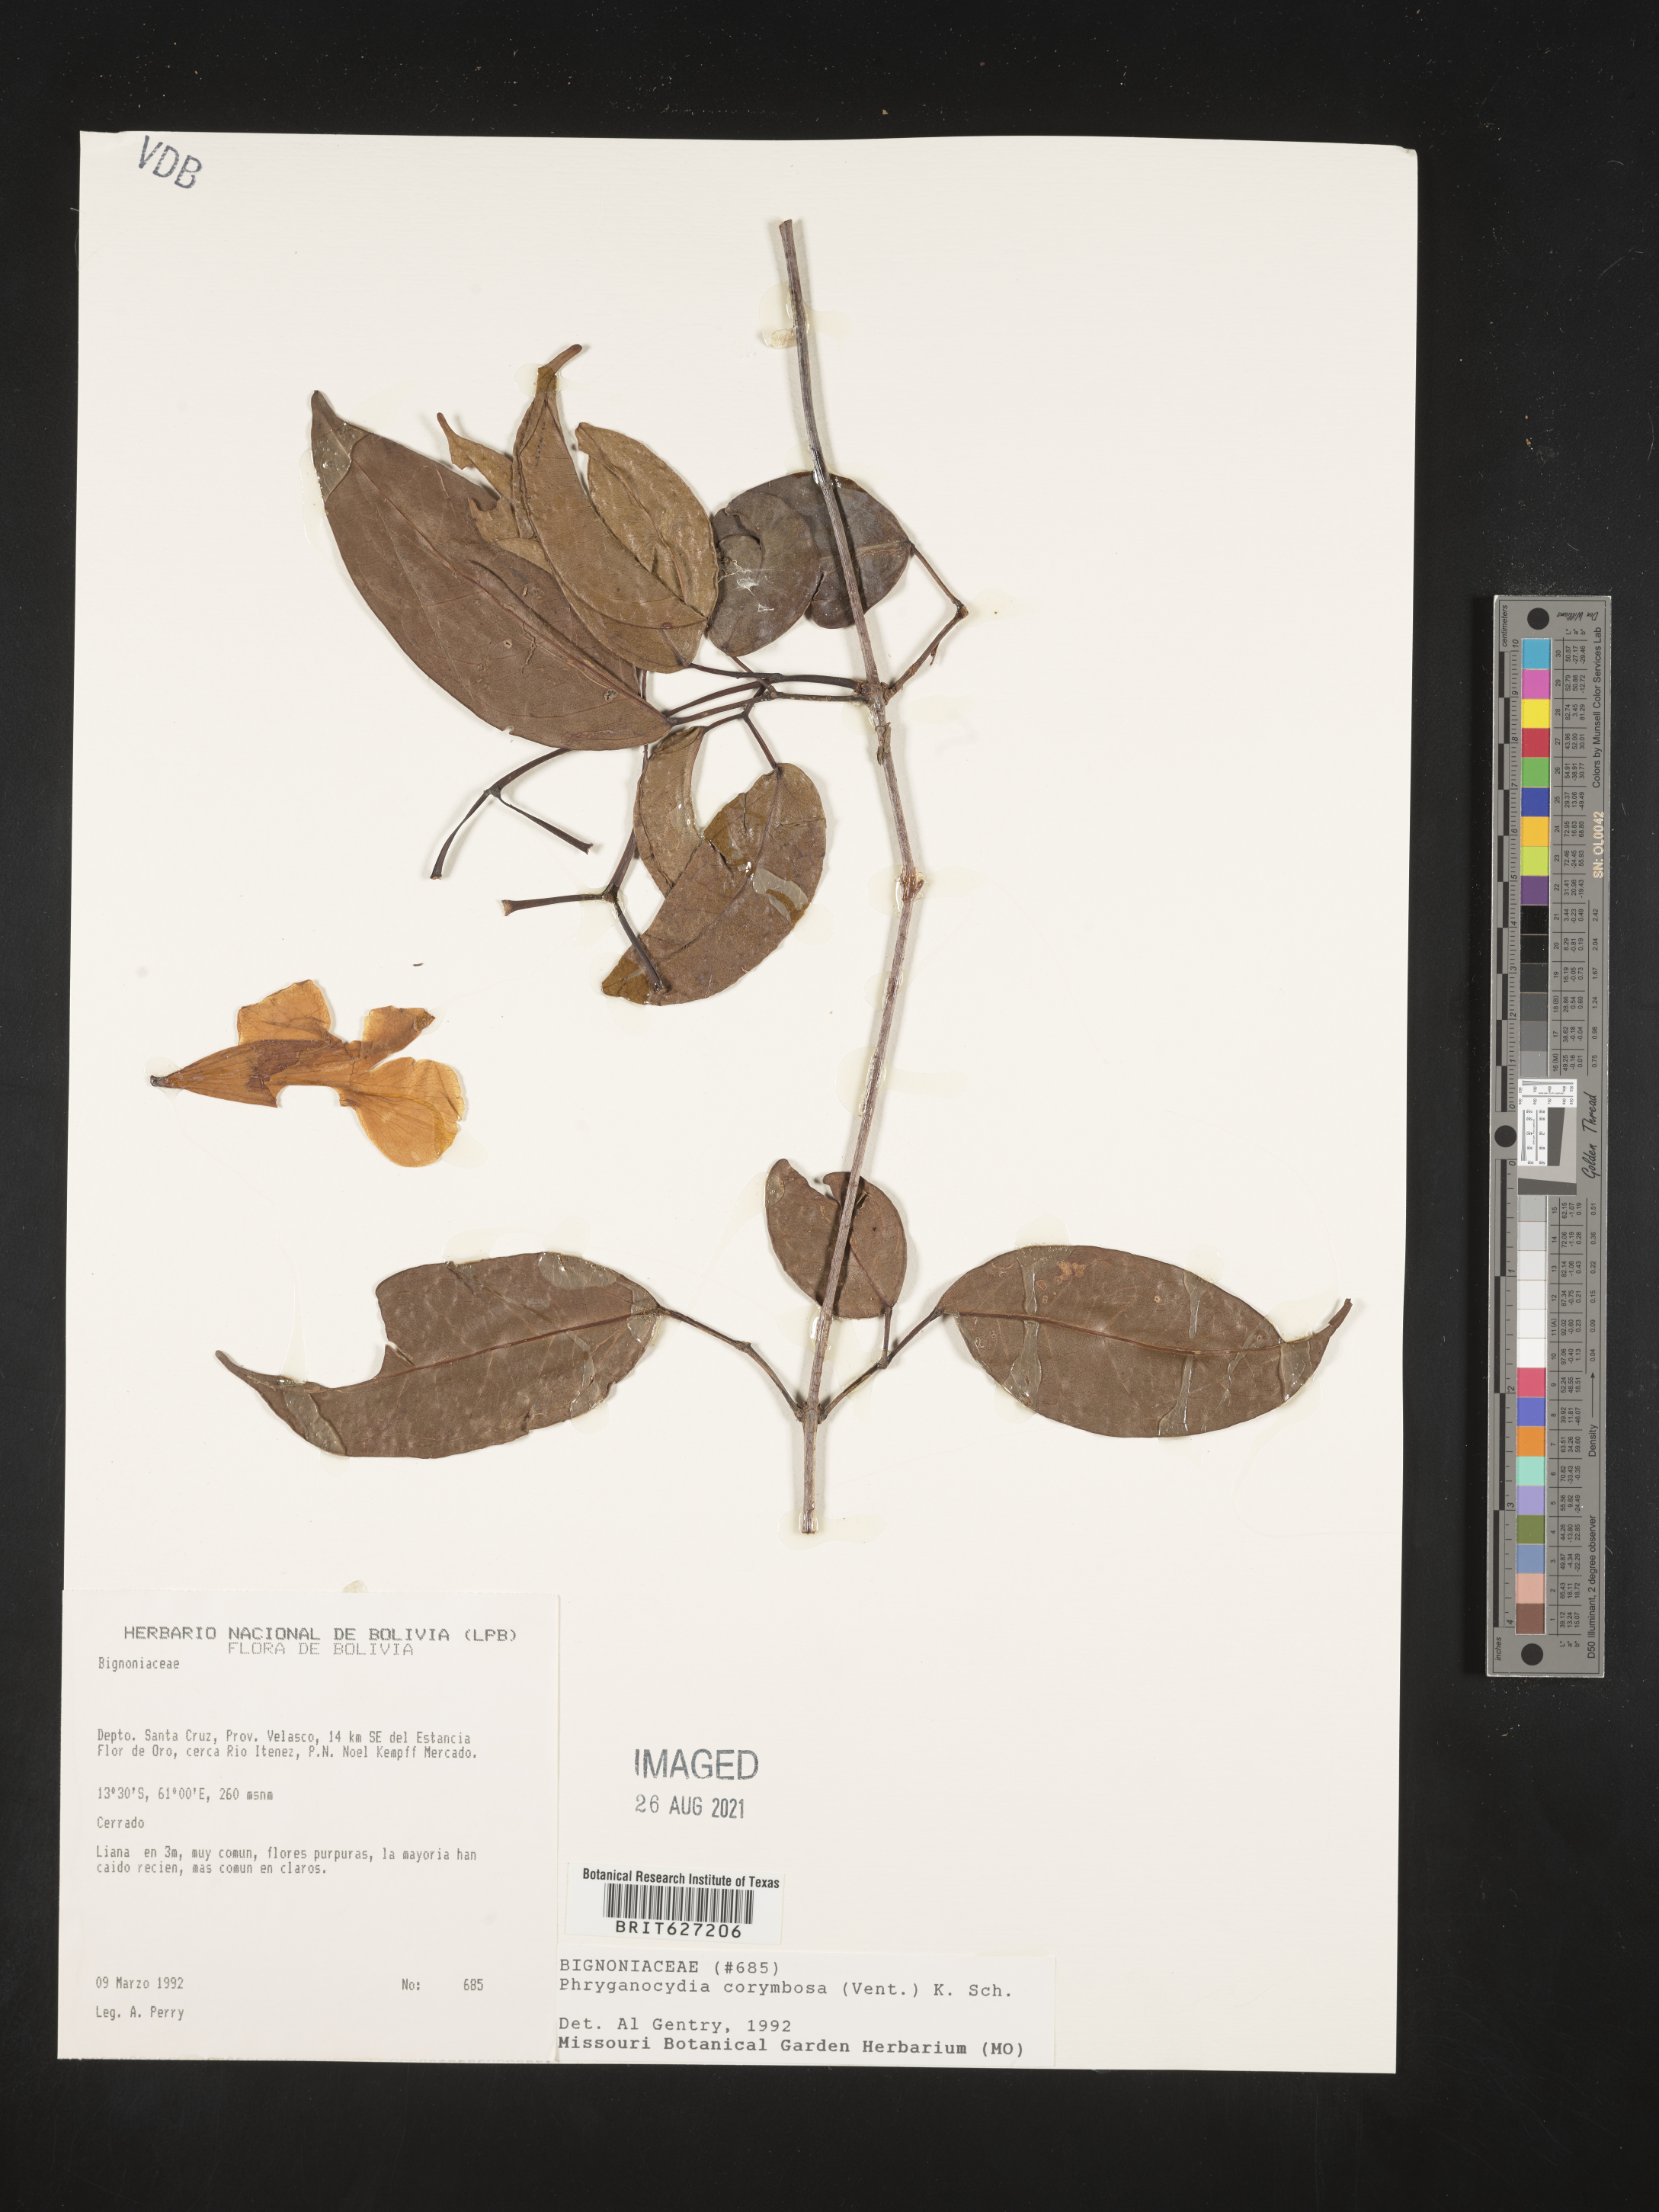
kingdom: Plantae
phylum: Tracheophyta
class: Magnoliopsida
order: Lamiales
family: Bignoniaceae
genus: Bignonia
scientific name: Bignonia corymbosa
